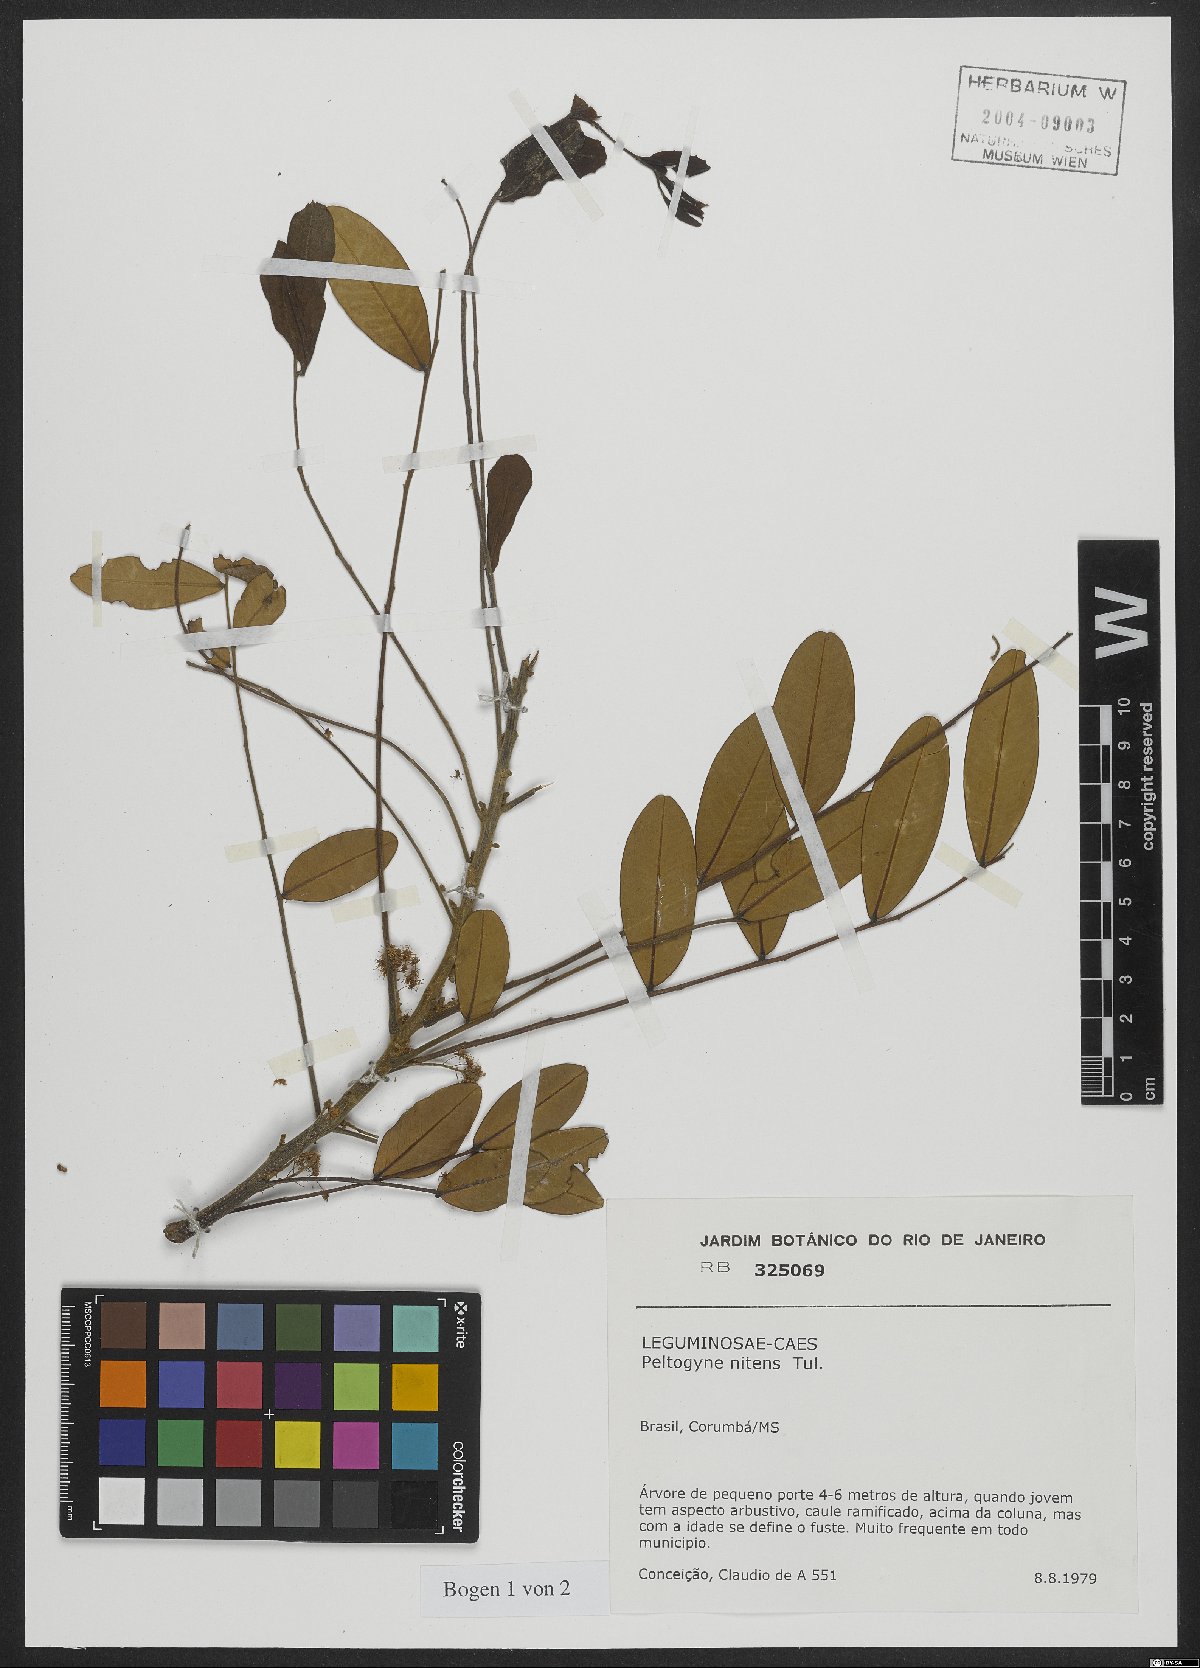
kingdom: Plantae
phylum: Tracheophyta
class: Magnoliopsida
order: Fabales
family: Fabaceae
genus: Pterogyne
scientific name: Pterogyne nitens
